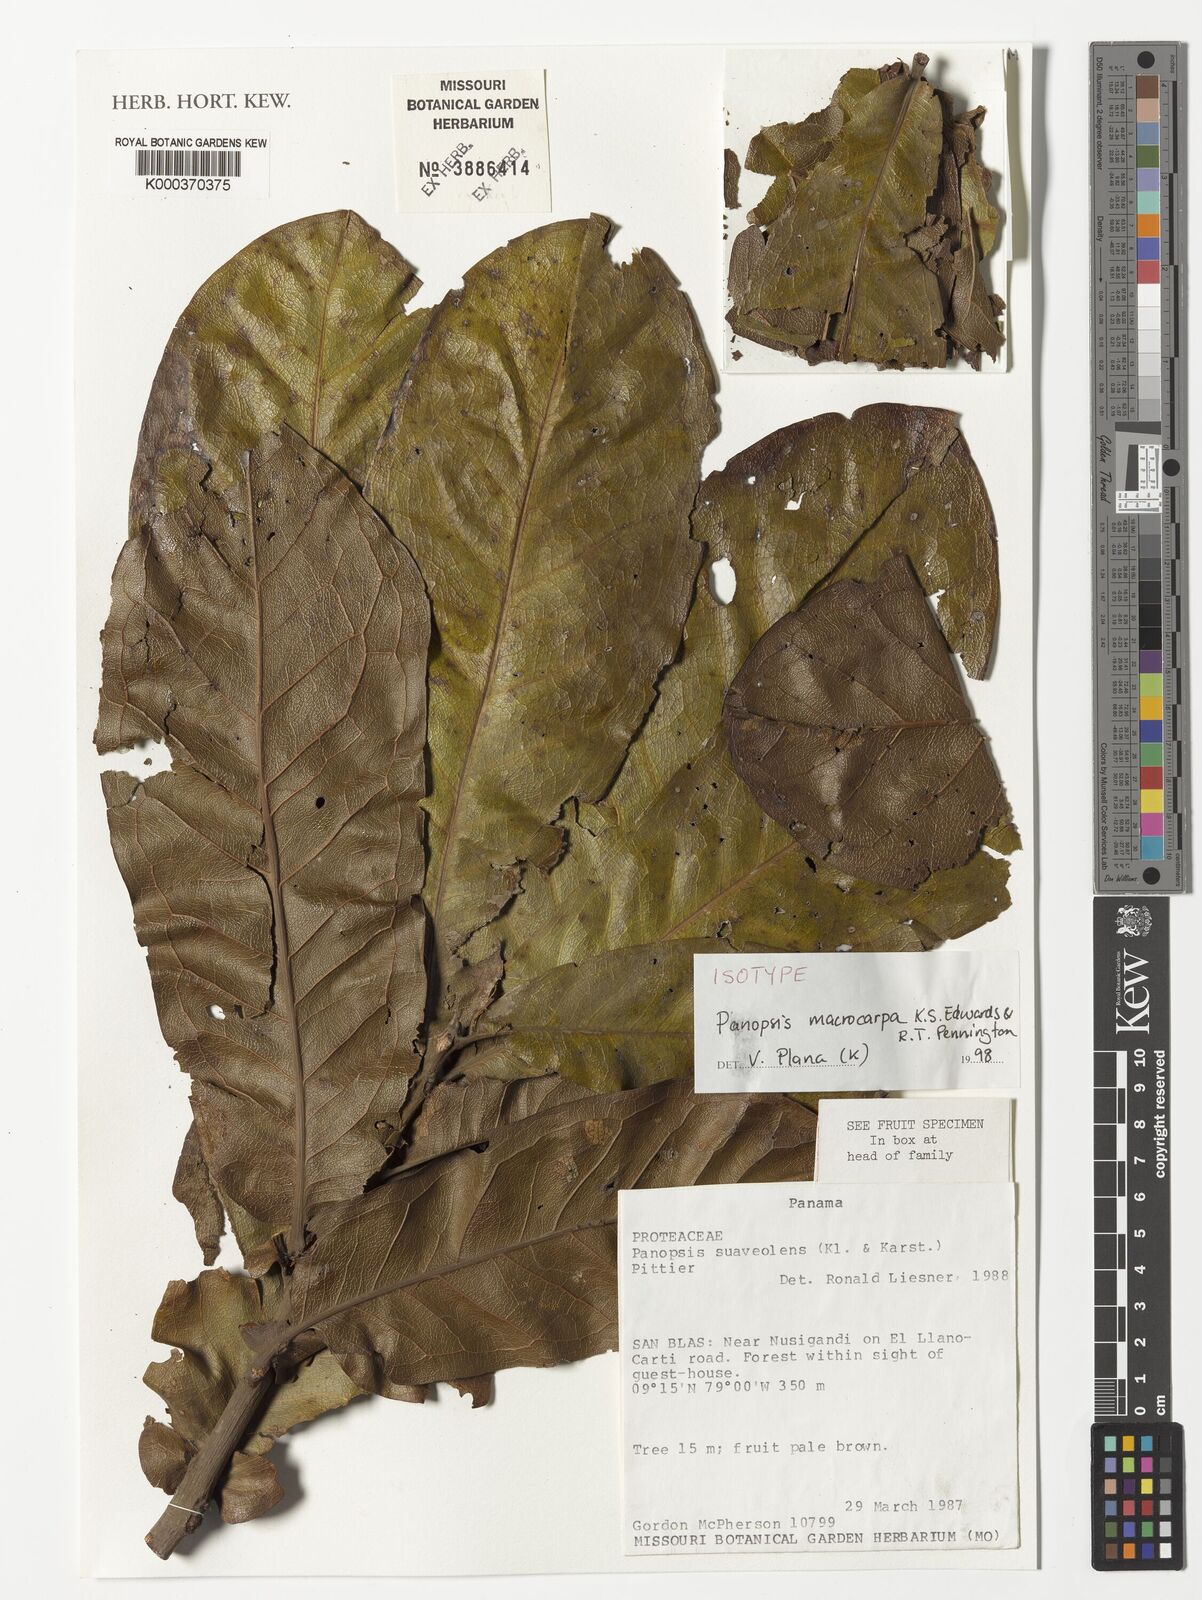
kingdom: Plantae
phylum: Tracheophyta
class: Magnoliopsida
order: Proteales
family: Proteaceae
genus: Panopsis
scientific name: Panopsis macrocarpa
